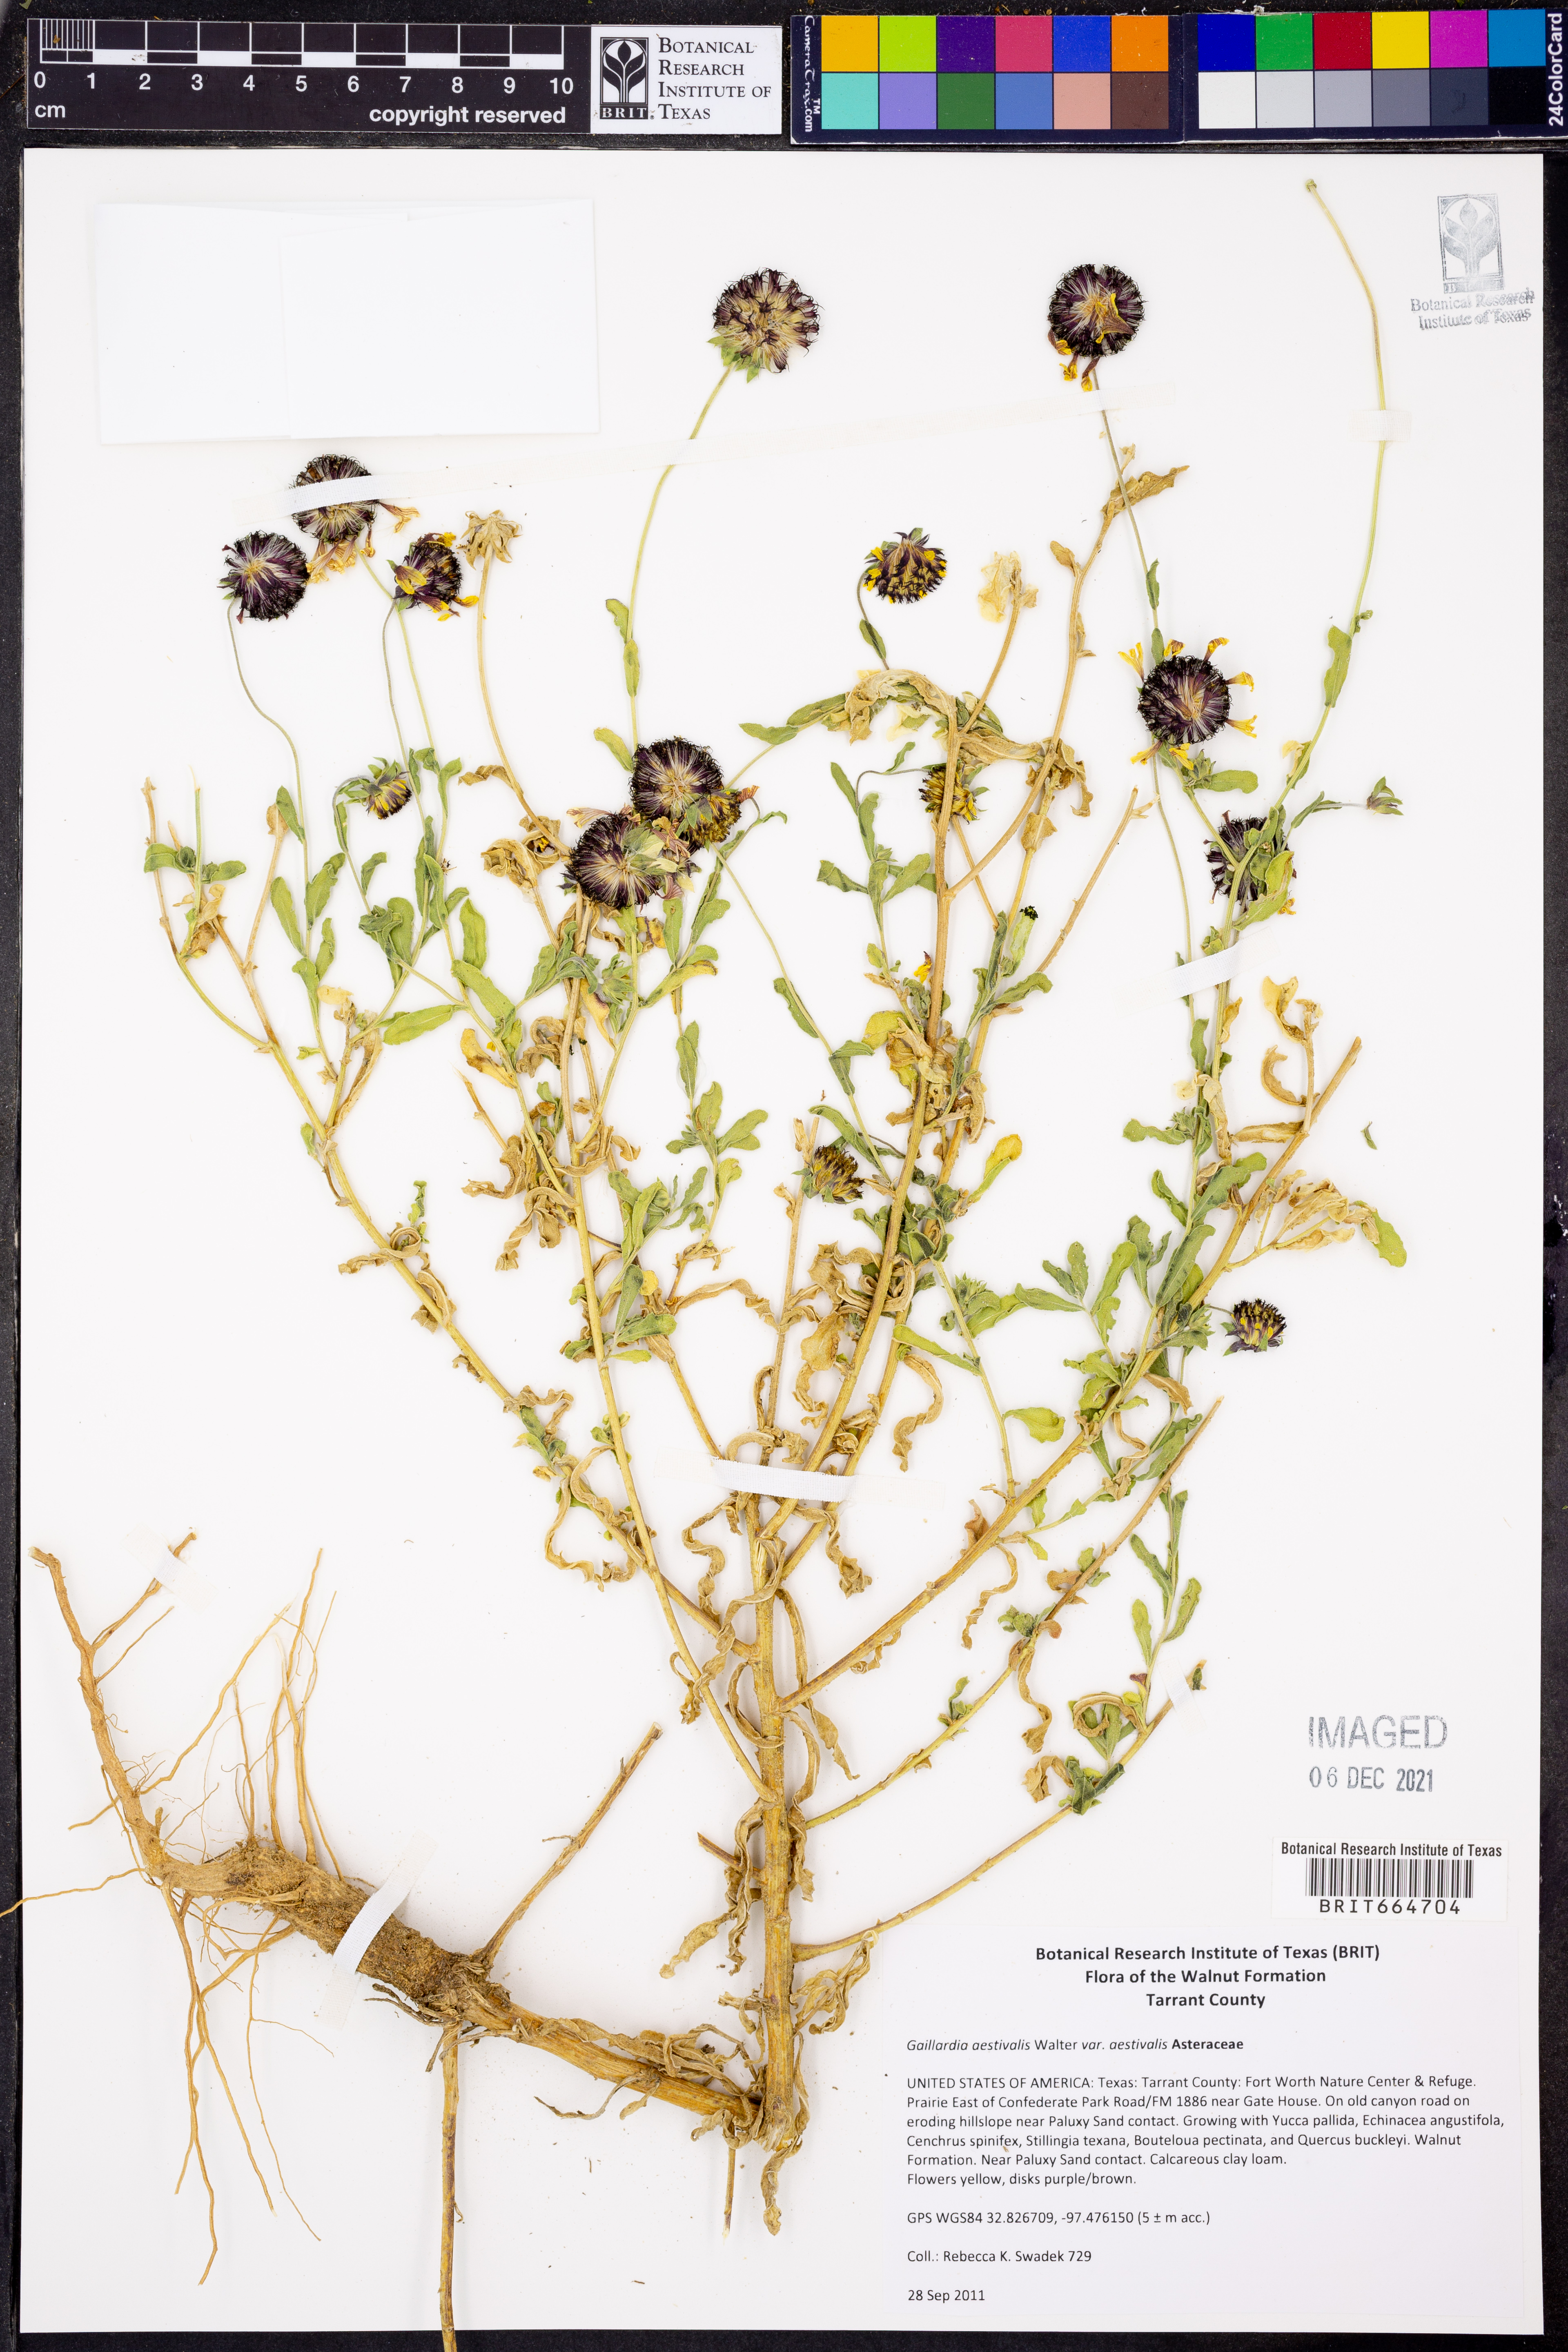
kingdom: Plantae
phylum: Tracheophyta
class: Magnoliopsida
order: Asterales
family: Asteraceae
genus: Gaillardia
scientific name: Gaillardia aestivalis
